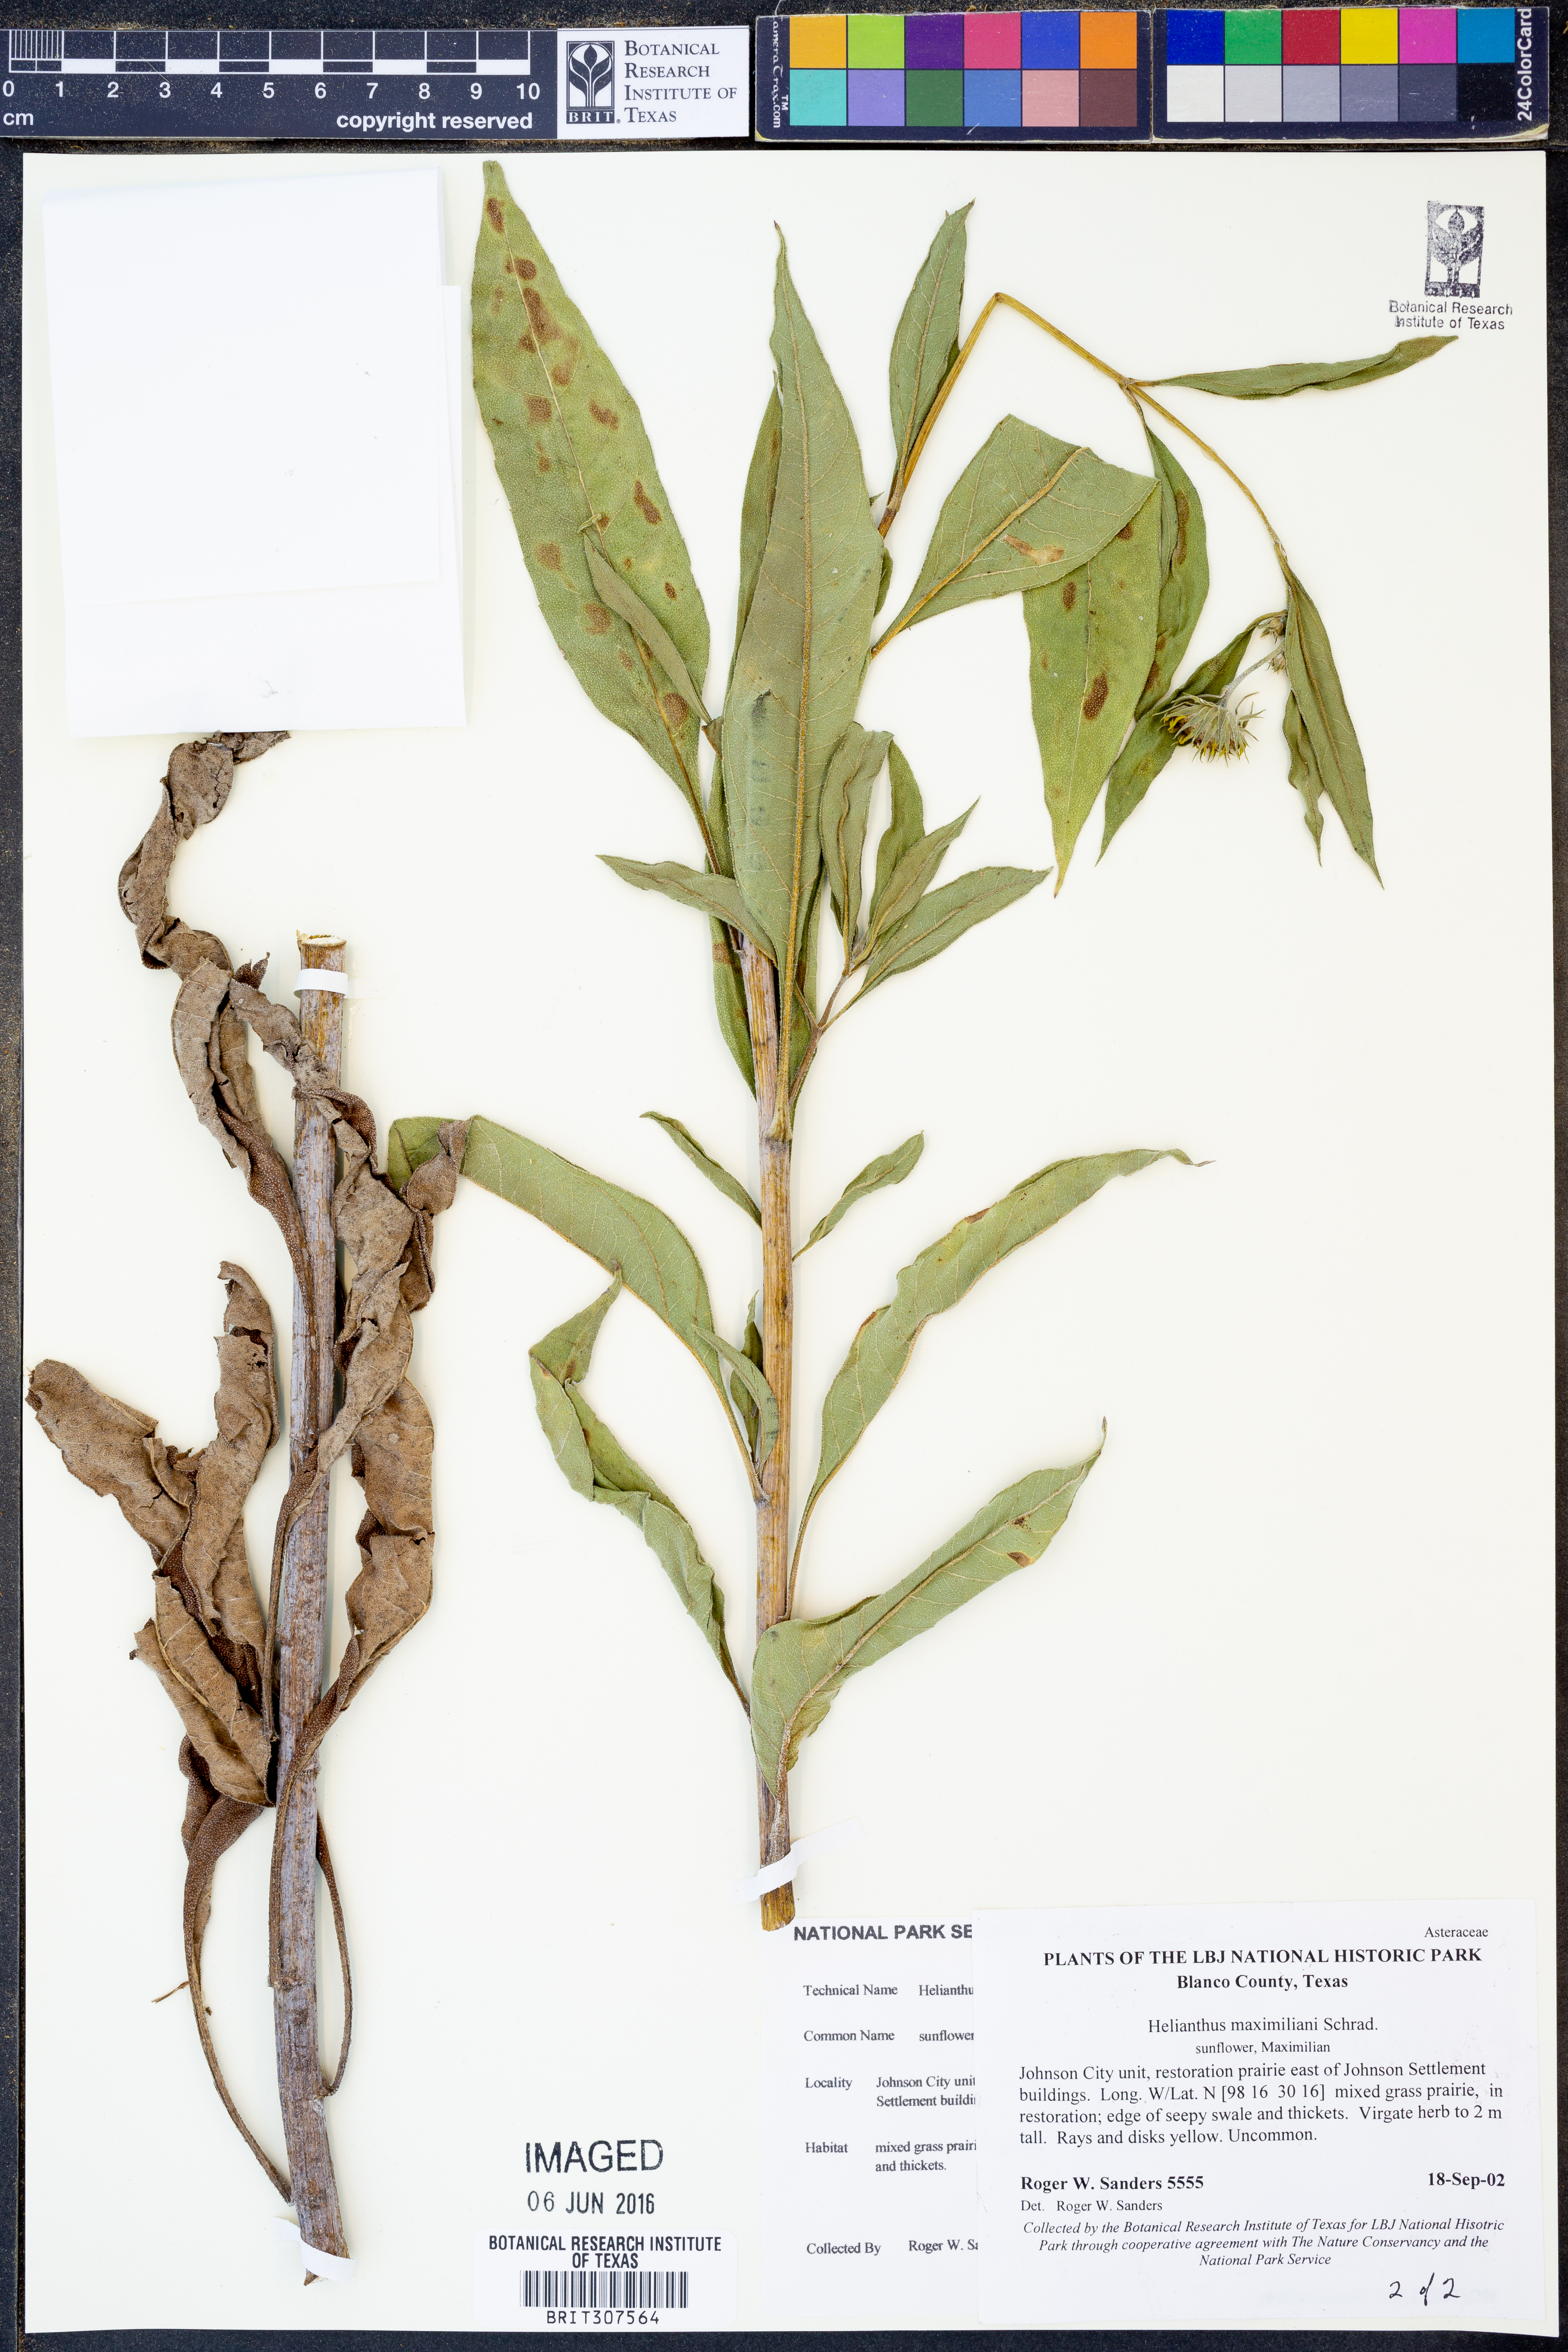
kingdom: Plantae
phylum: Tracheophyta
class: Magnoliopsida
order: Asterales
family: Asteraceae
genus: Helianthus
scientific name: Helianthus maximiliani
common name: Maximilian's sunflower
